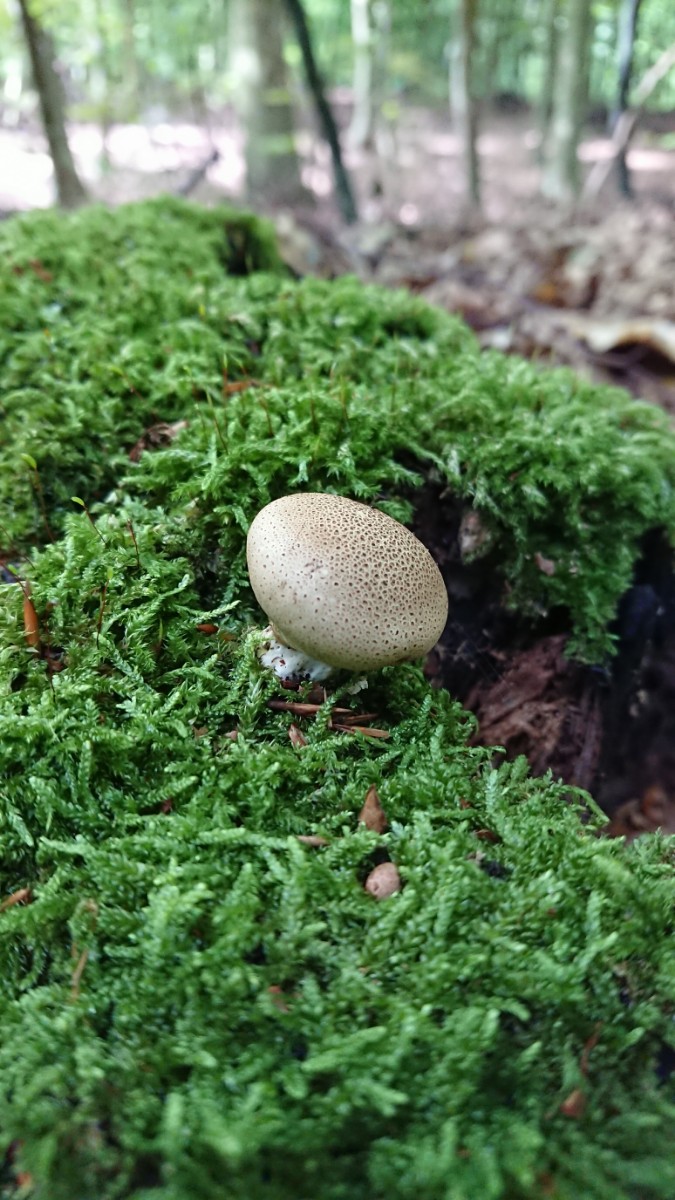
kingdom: Fungi
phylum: Basidiomycota
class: Agaricomycetes
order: Boletales
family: Sclerodermataceae
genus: Scleroderma
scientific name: Scleroderma
